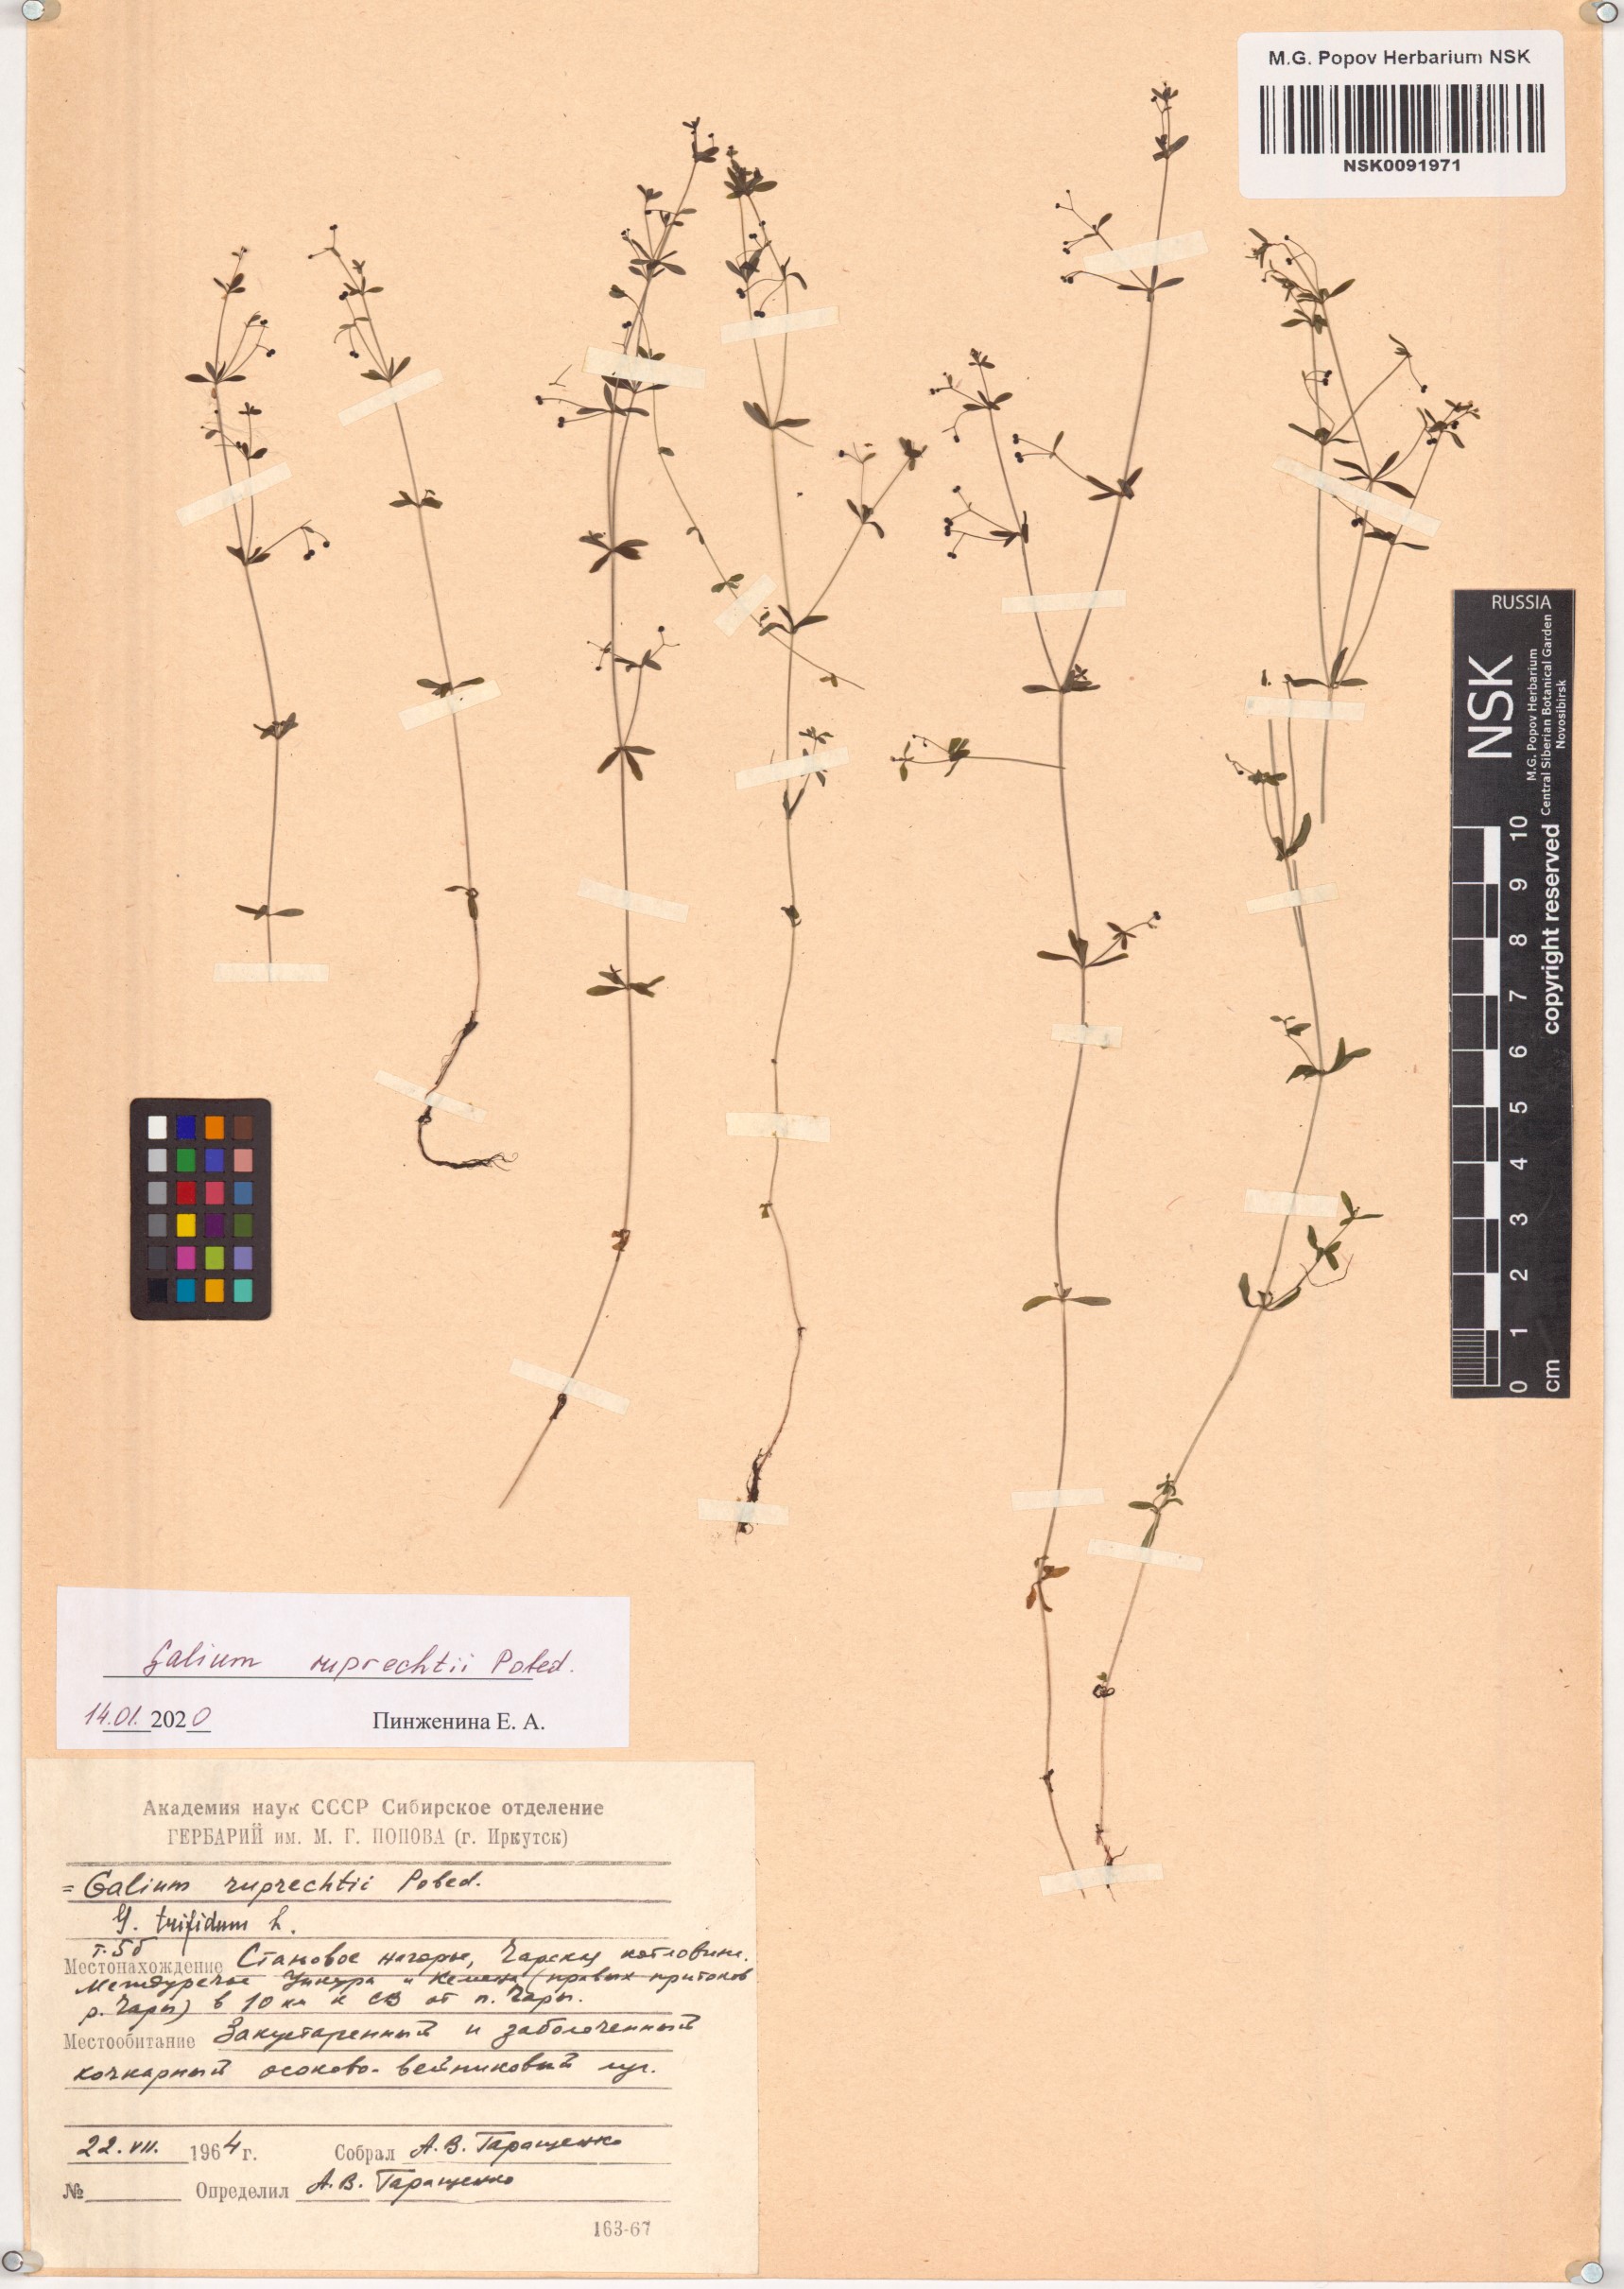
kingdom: Plantae
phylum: Tracheophyta
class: Magnoliopsida
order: Gentianales
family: Rubiaceae
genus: Galium
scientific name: Galium trifidum
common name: Small bedstraw
